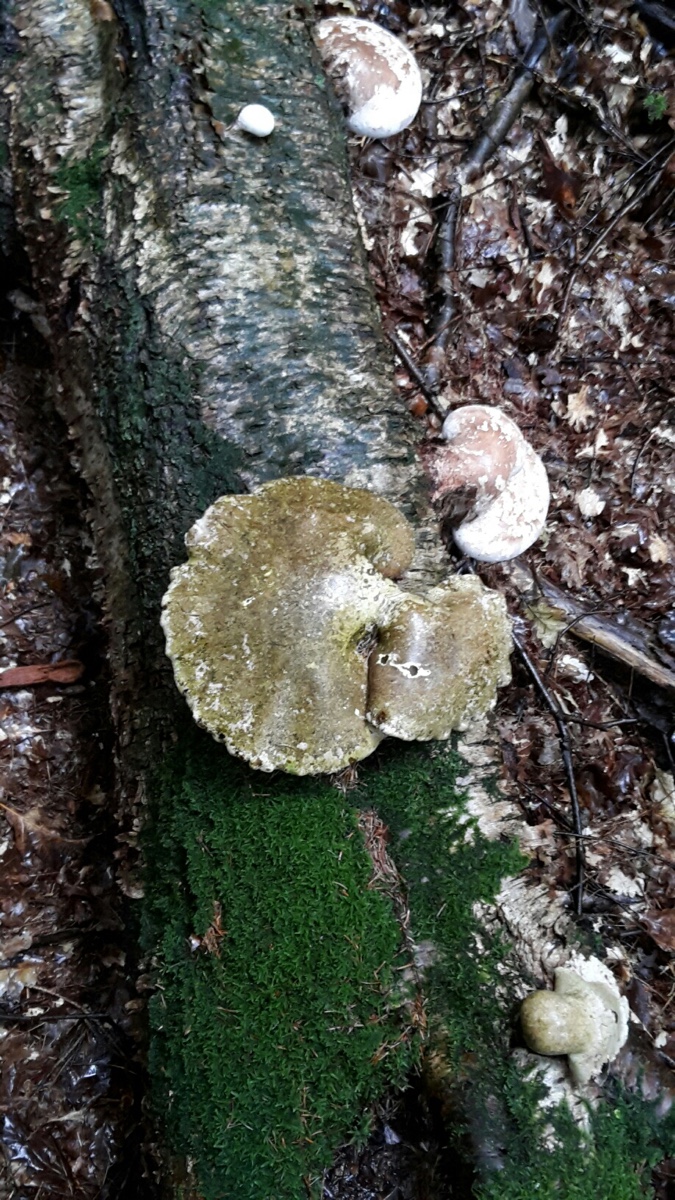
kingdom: Fungi
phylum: Basidiomycota
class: Agaricomycetes
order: Polyporales
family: Fomitopsidaceae
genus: Fomitopsis
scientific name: Fomitopsis betulina
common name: birkeporesvamp
